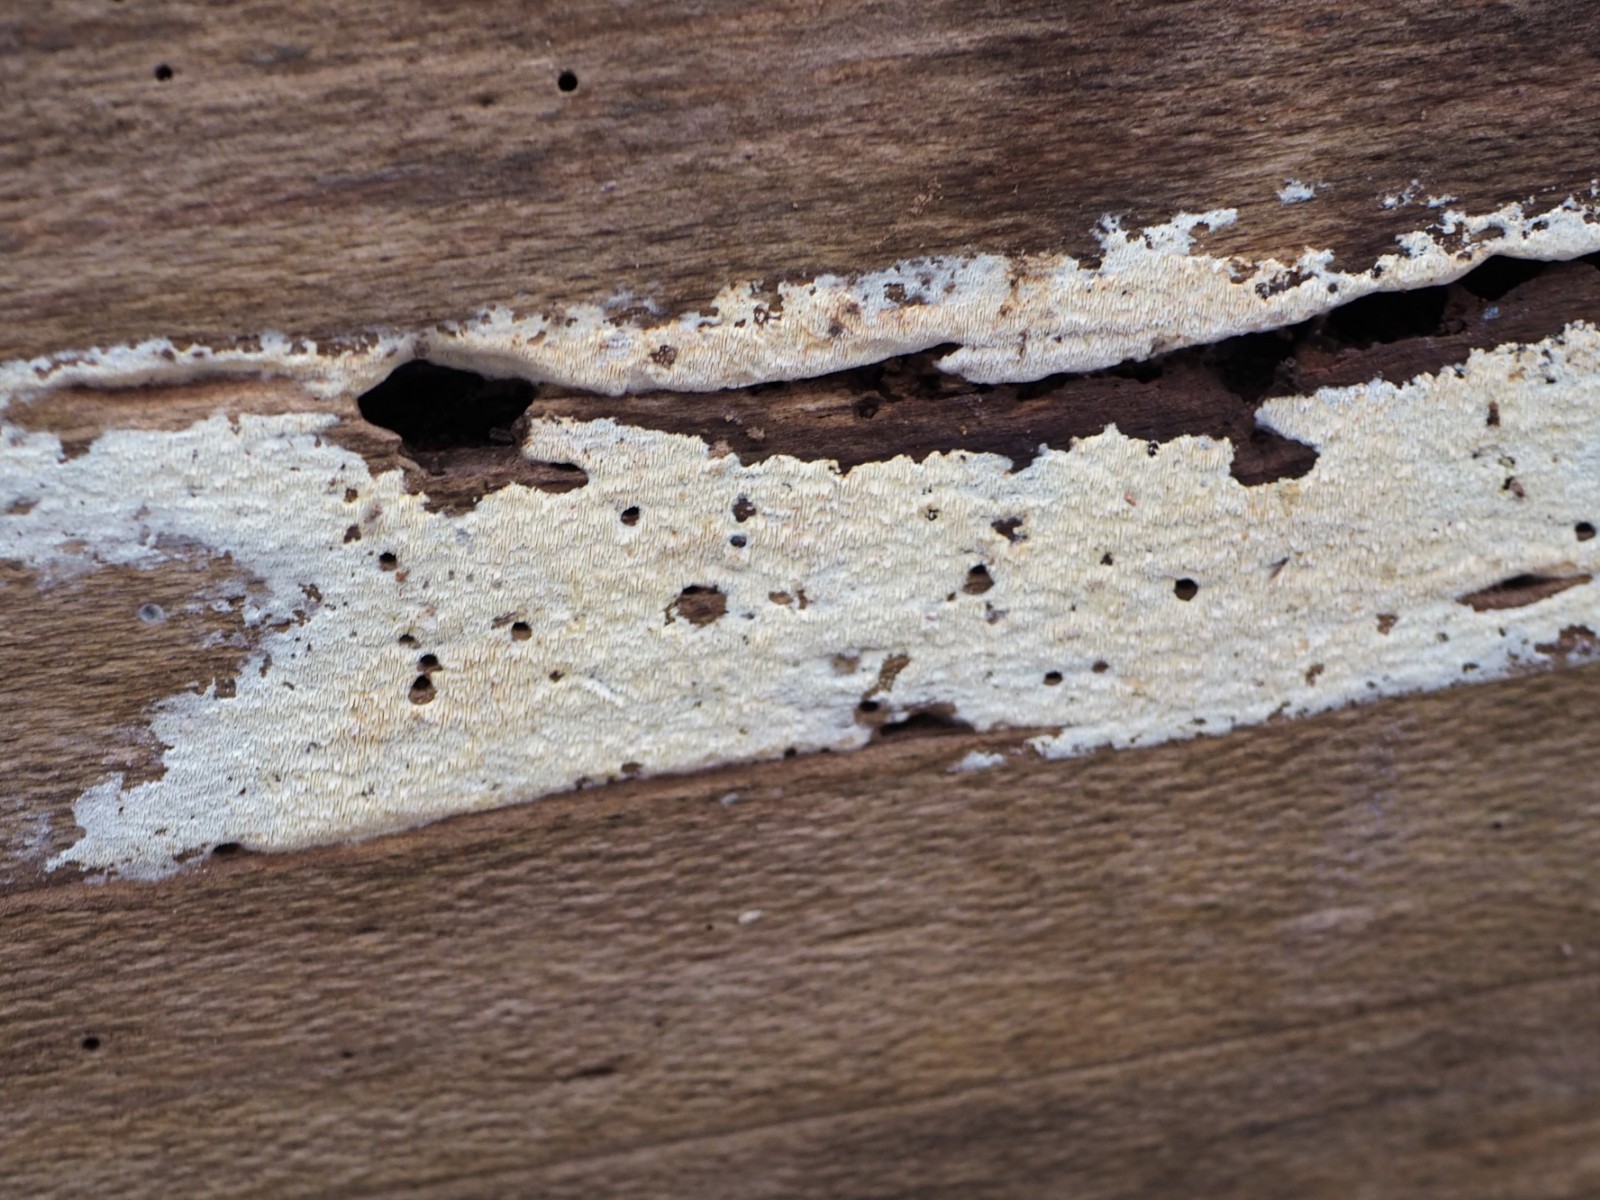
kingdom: Fungi
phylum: Basidiomycota
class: Agaricomycetes
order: Hymenochaetales
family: Schizoporaceae
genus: Xylodon
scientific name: Xylodon subtropicus
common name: labyrint-tandsvamp
